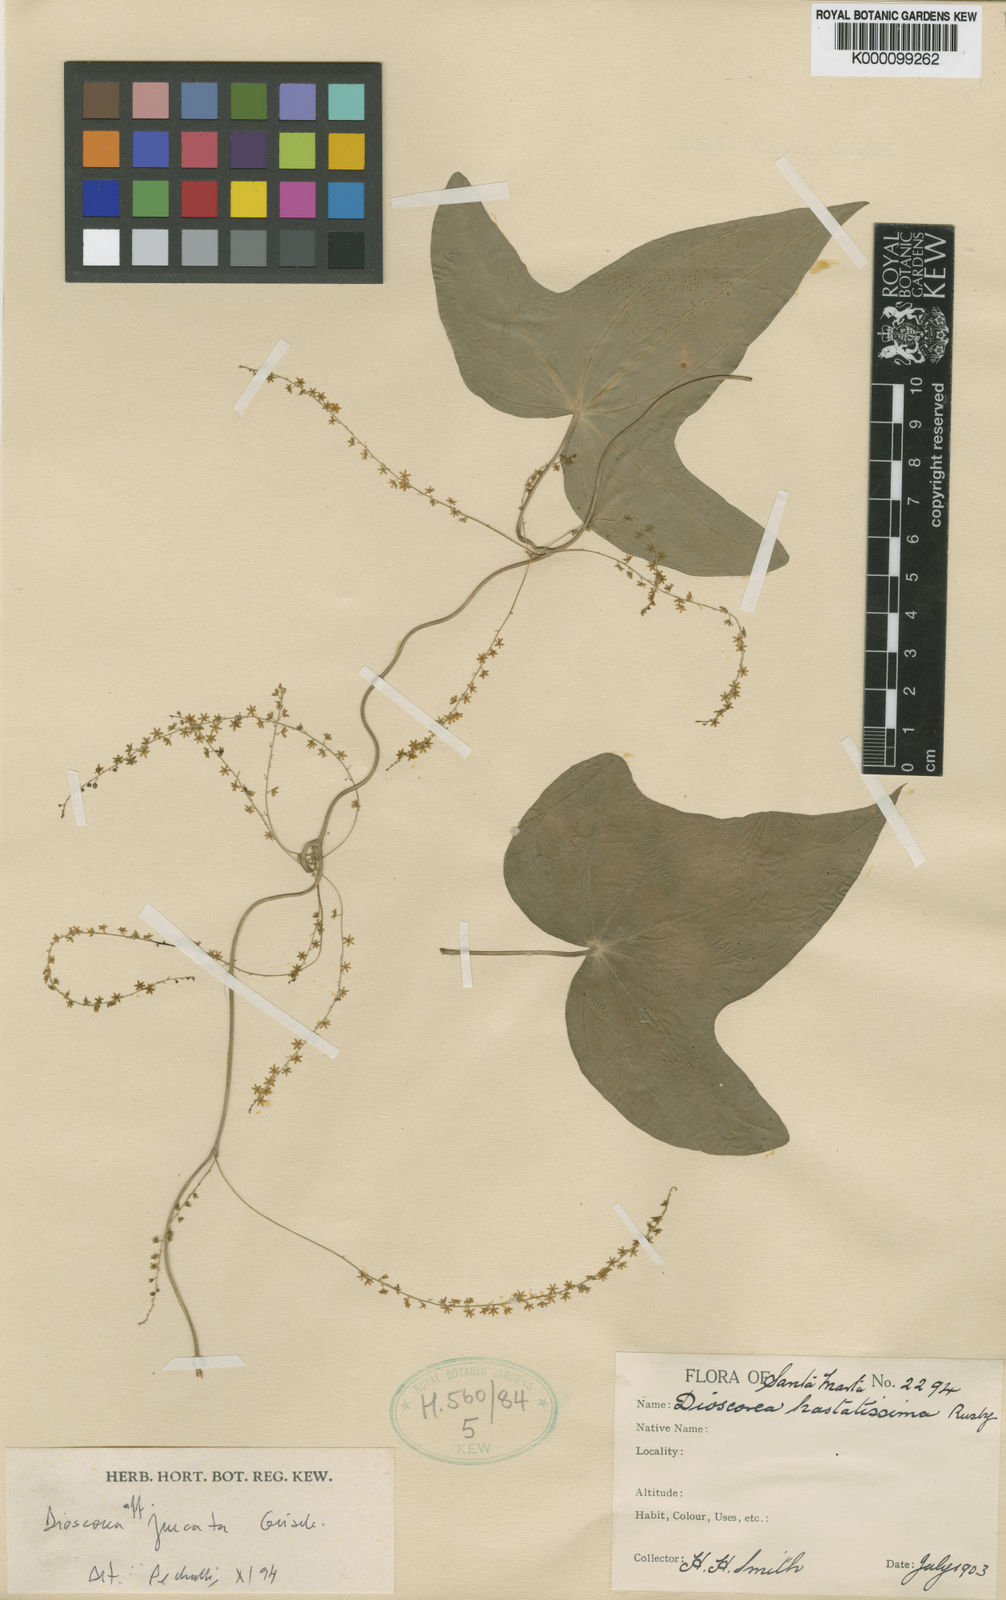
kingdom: Plantae
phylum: Tracheophyta
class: Liliopsida
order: Dioscoreales
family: Dioscoreaceae
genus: Dioscorea
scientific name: Dioscorea hastatissima
